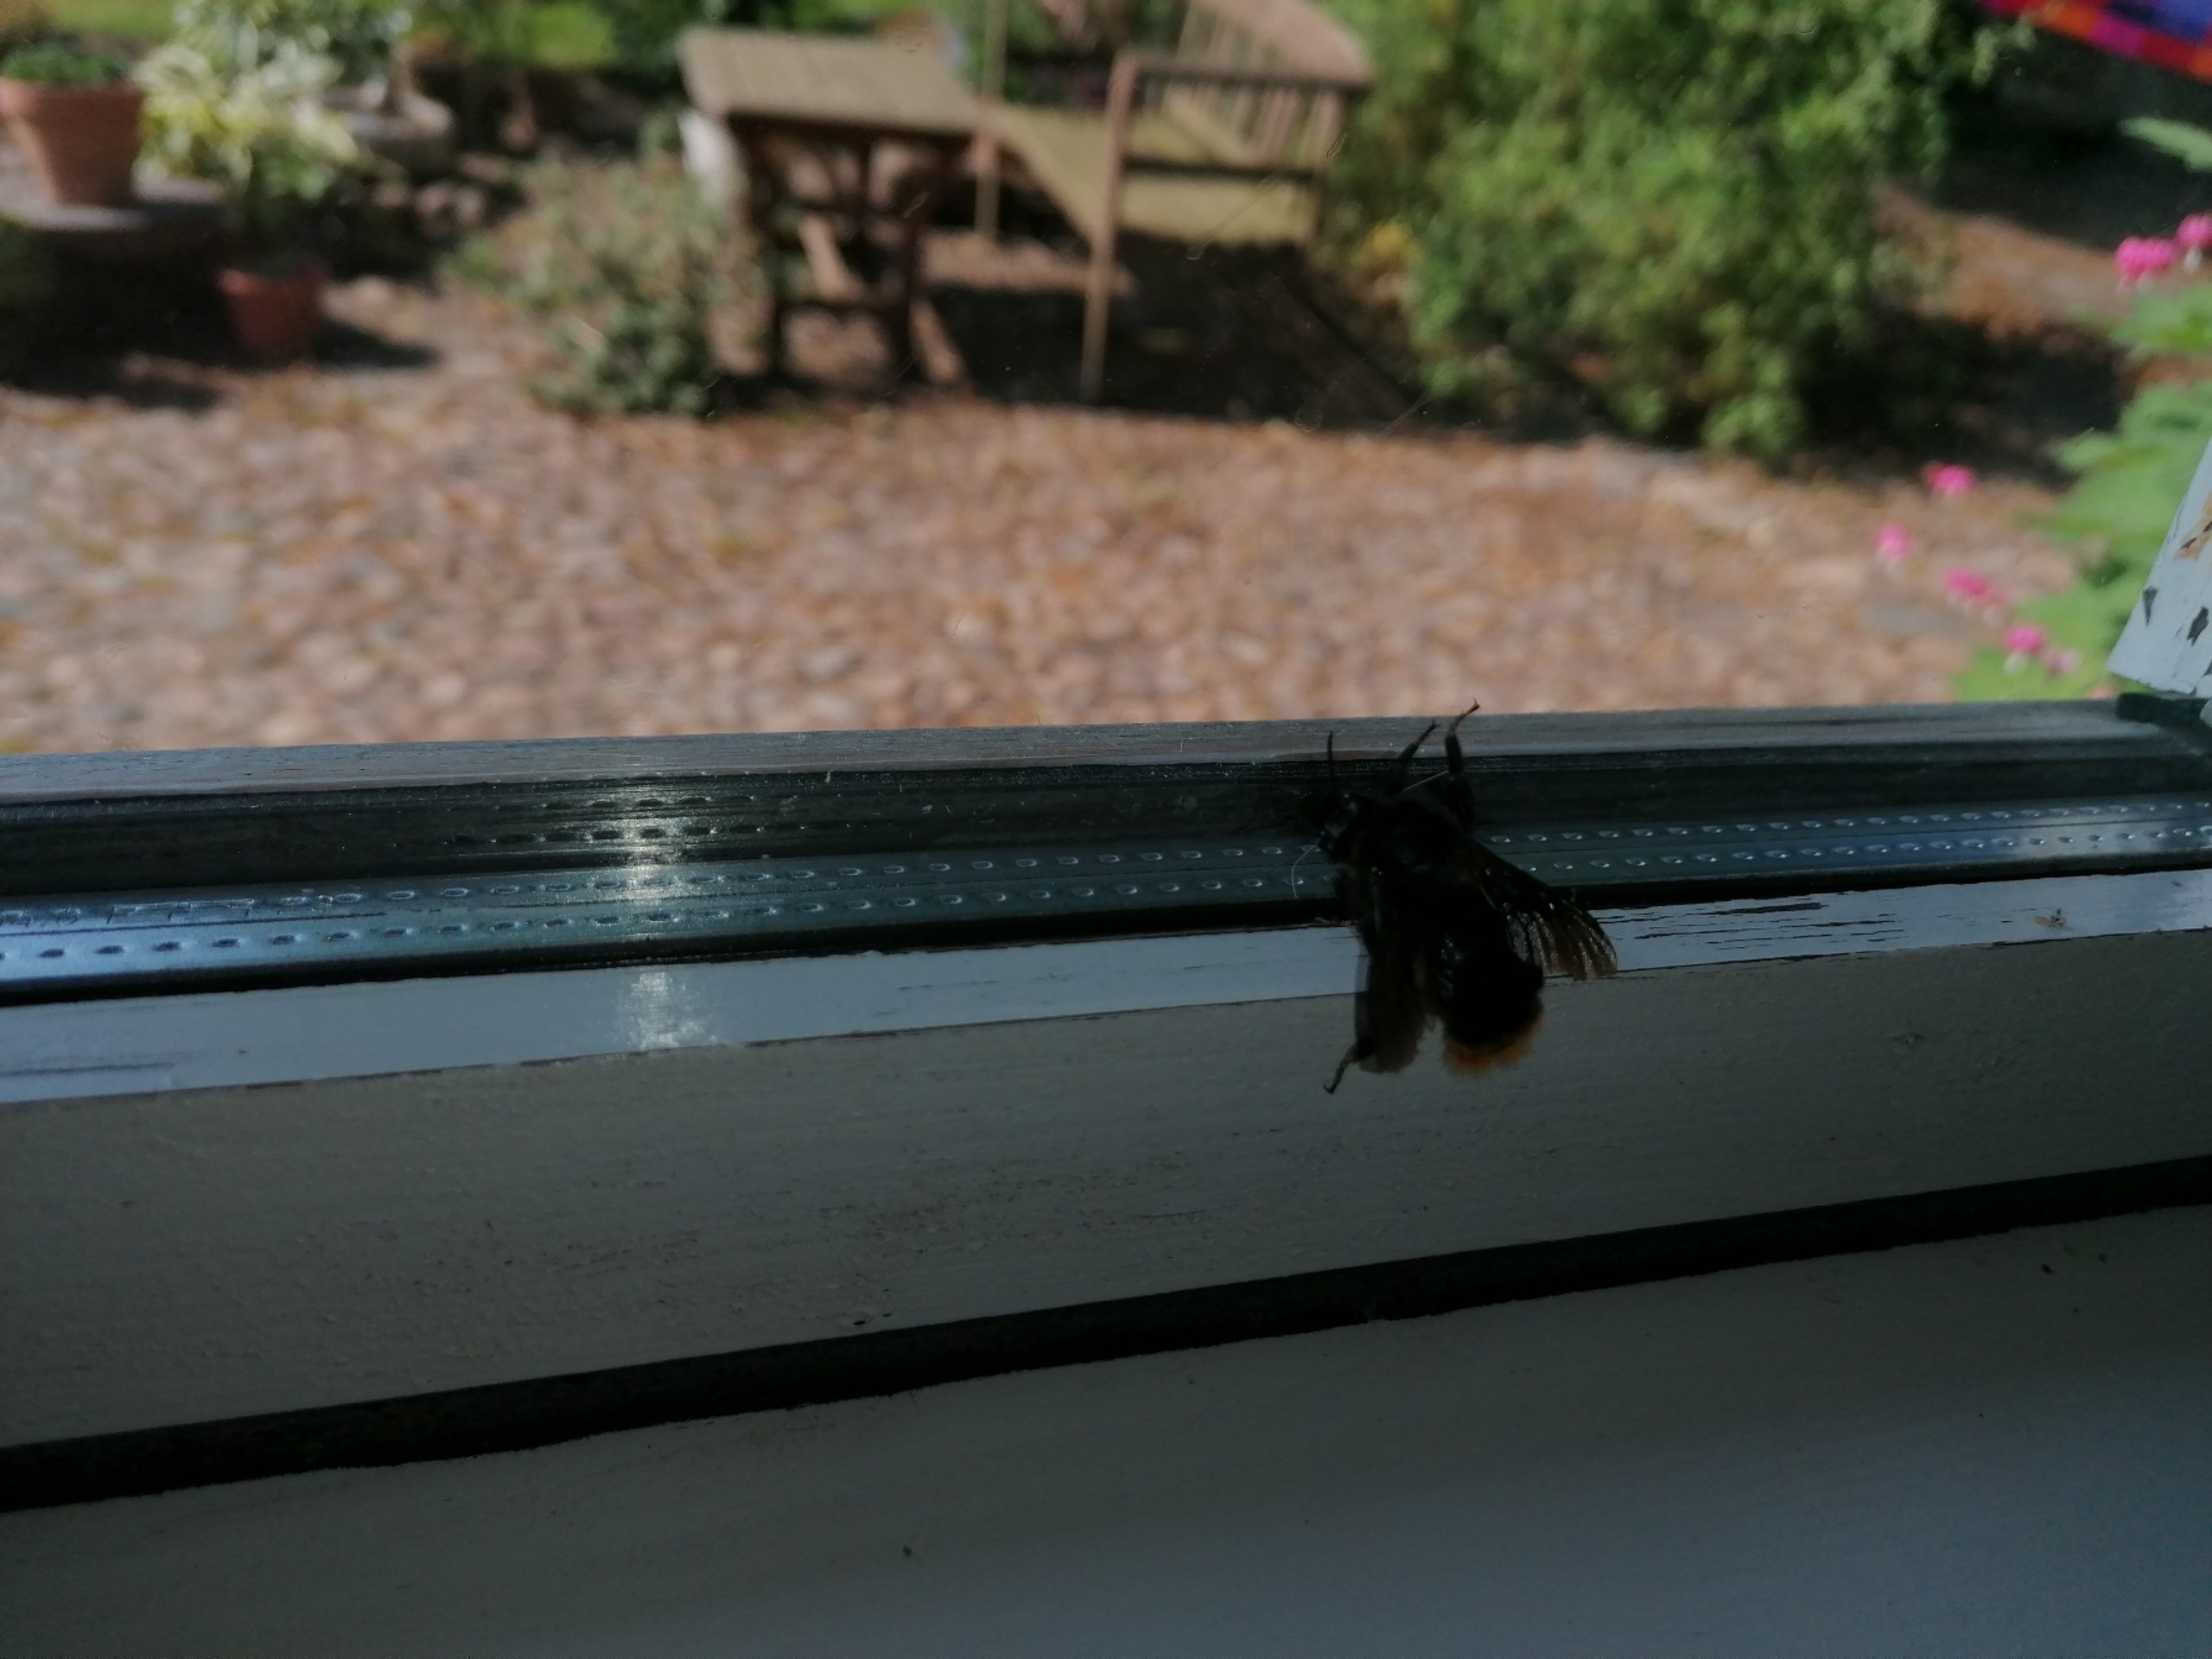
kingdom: Animalia
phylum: Arthropoda
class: Insecta
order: Hymenoptera
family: Apidae
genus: Bombus
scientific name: Bombus rupestris
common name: Stensnyltehumle
